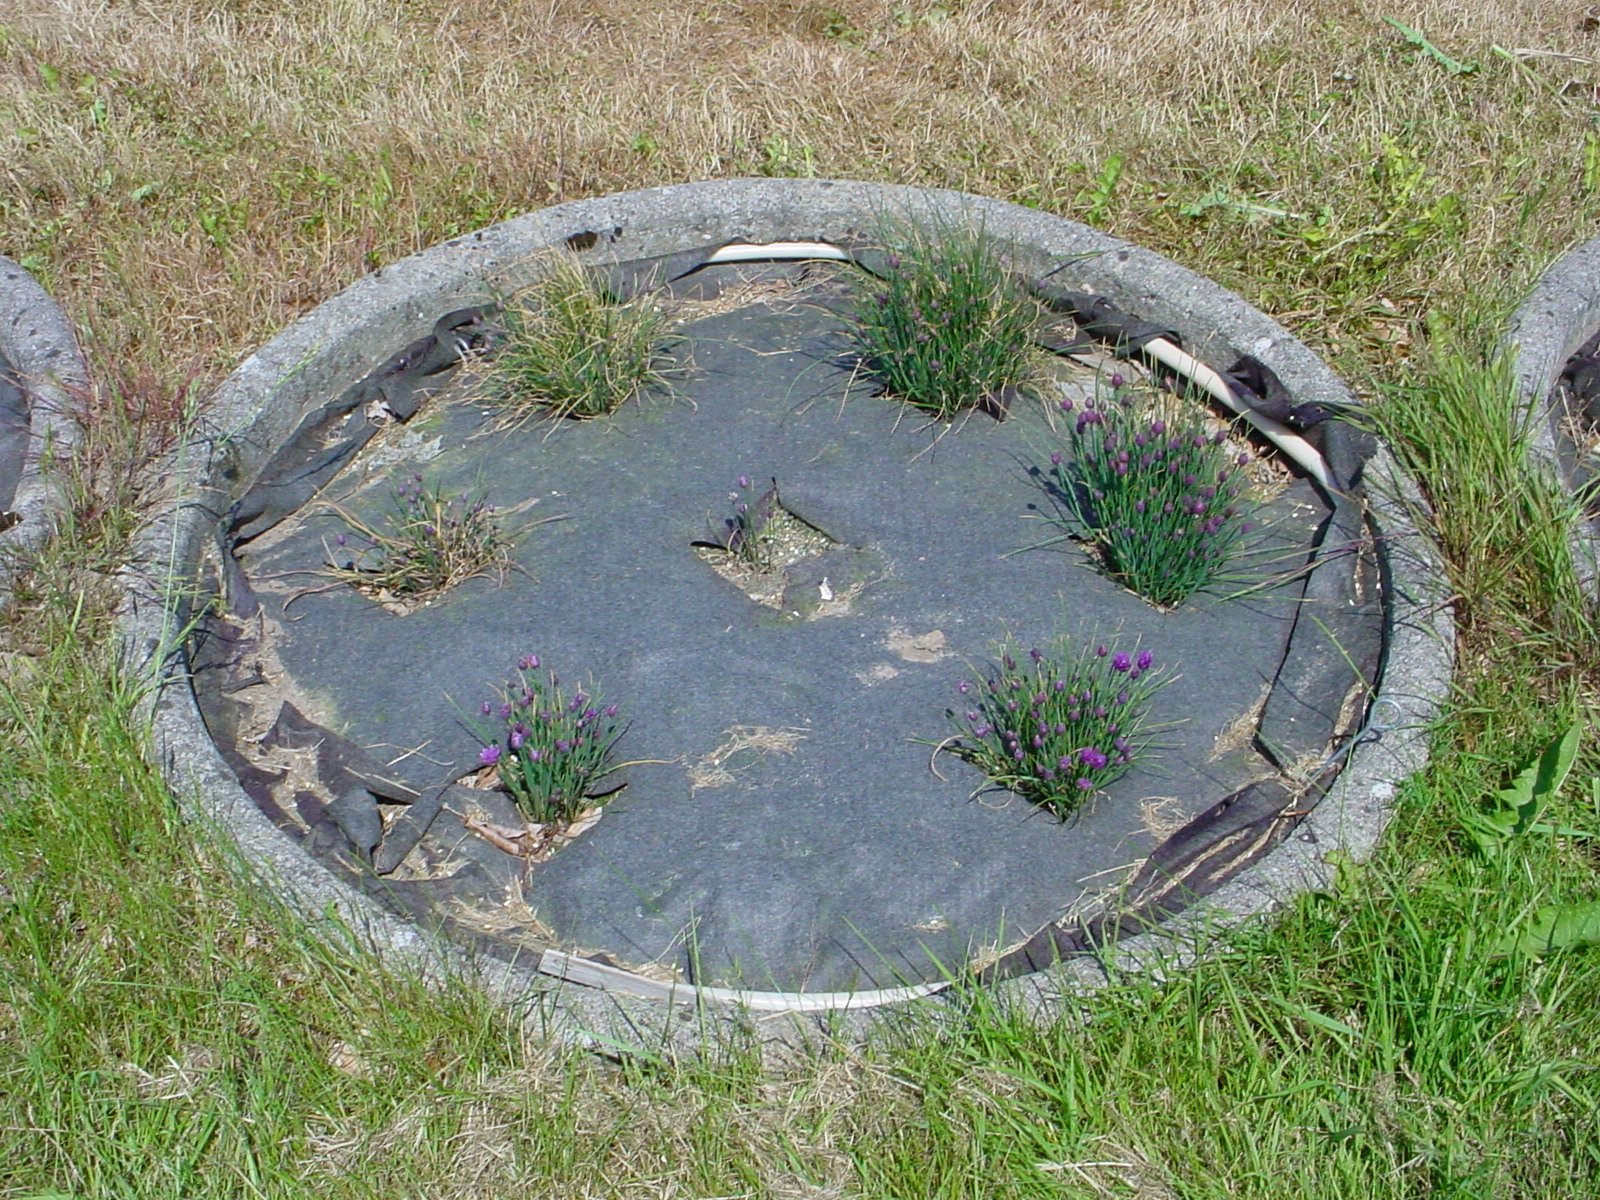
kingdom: Plantae
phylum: Tracheophyta
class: Liliopsida
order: Asparagales
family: Amaryllidaceae
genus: Allium
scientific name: Allium schoenoprasum
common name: Chives
